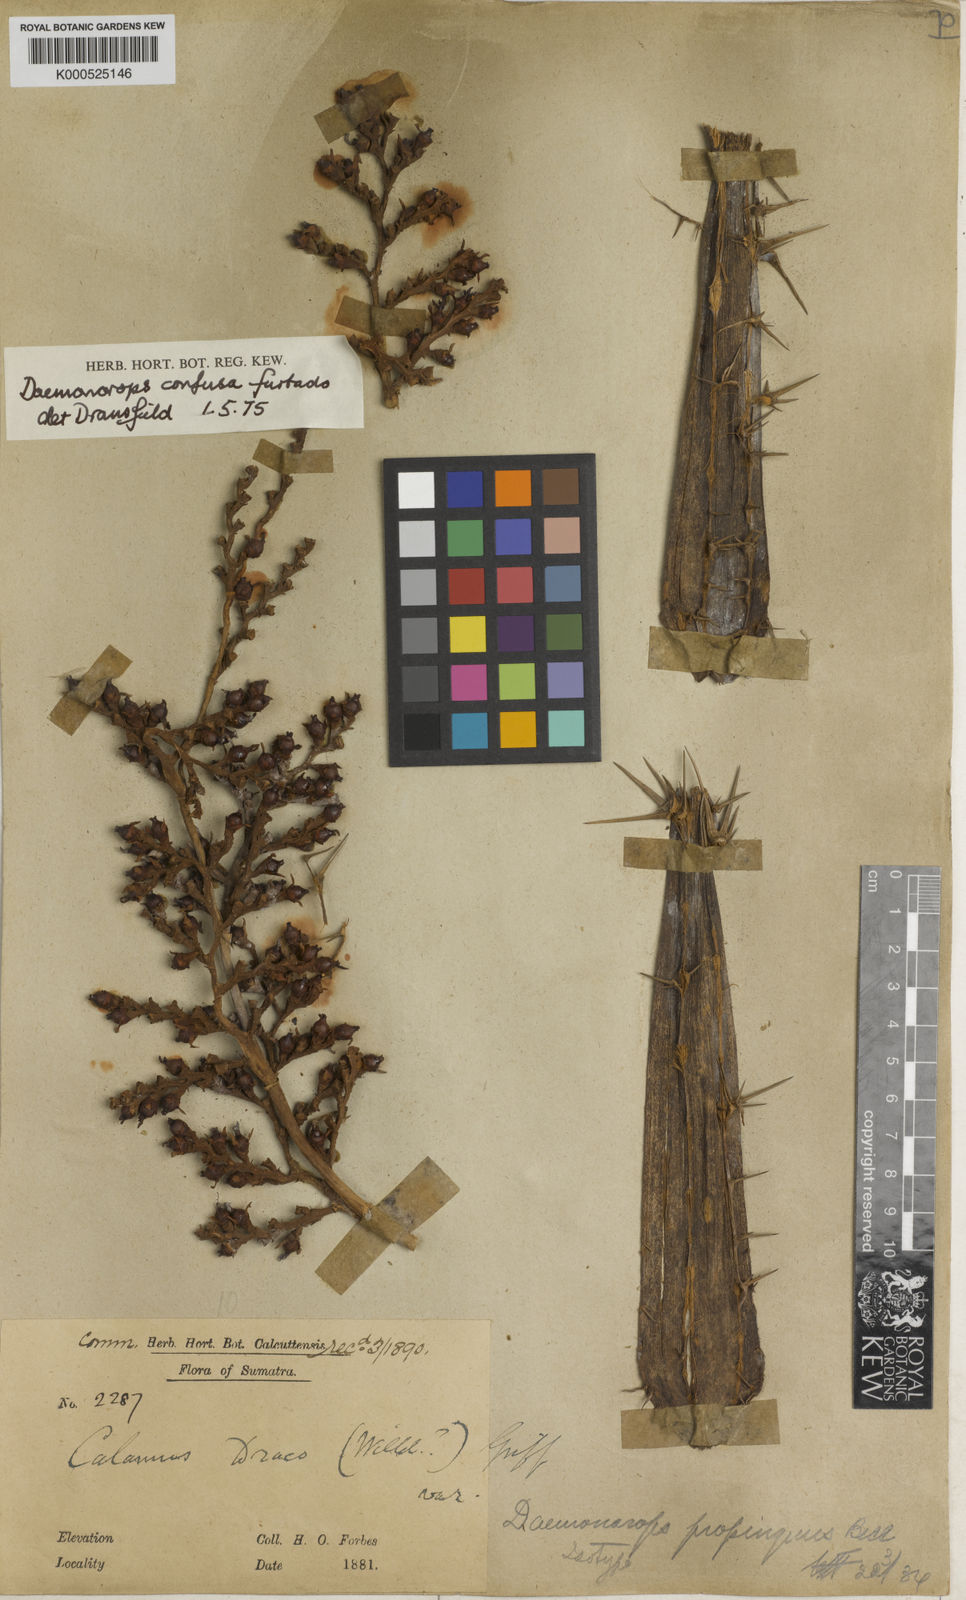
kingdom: Plantae
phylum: Tracheophyta
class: Liliopsida
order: Arecales
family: Arecaceae
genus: Calamus
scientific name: Calamus confusus
